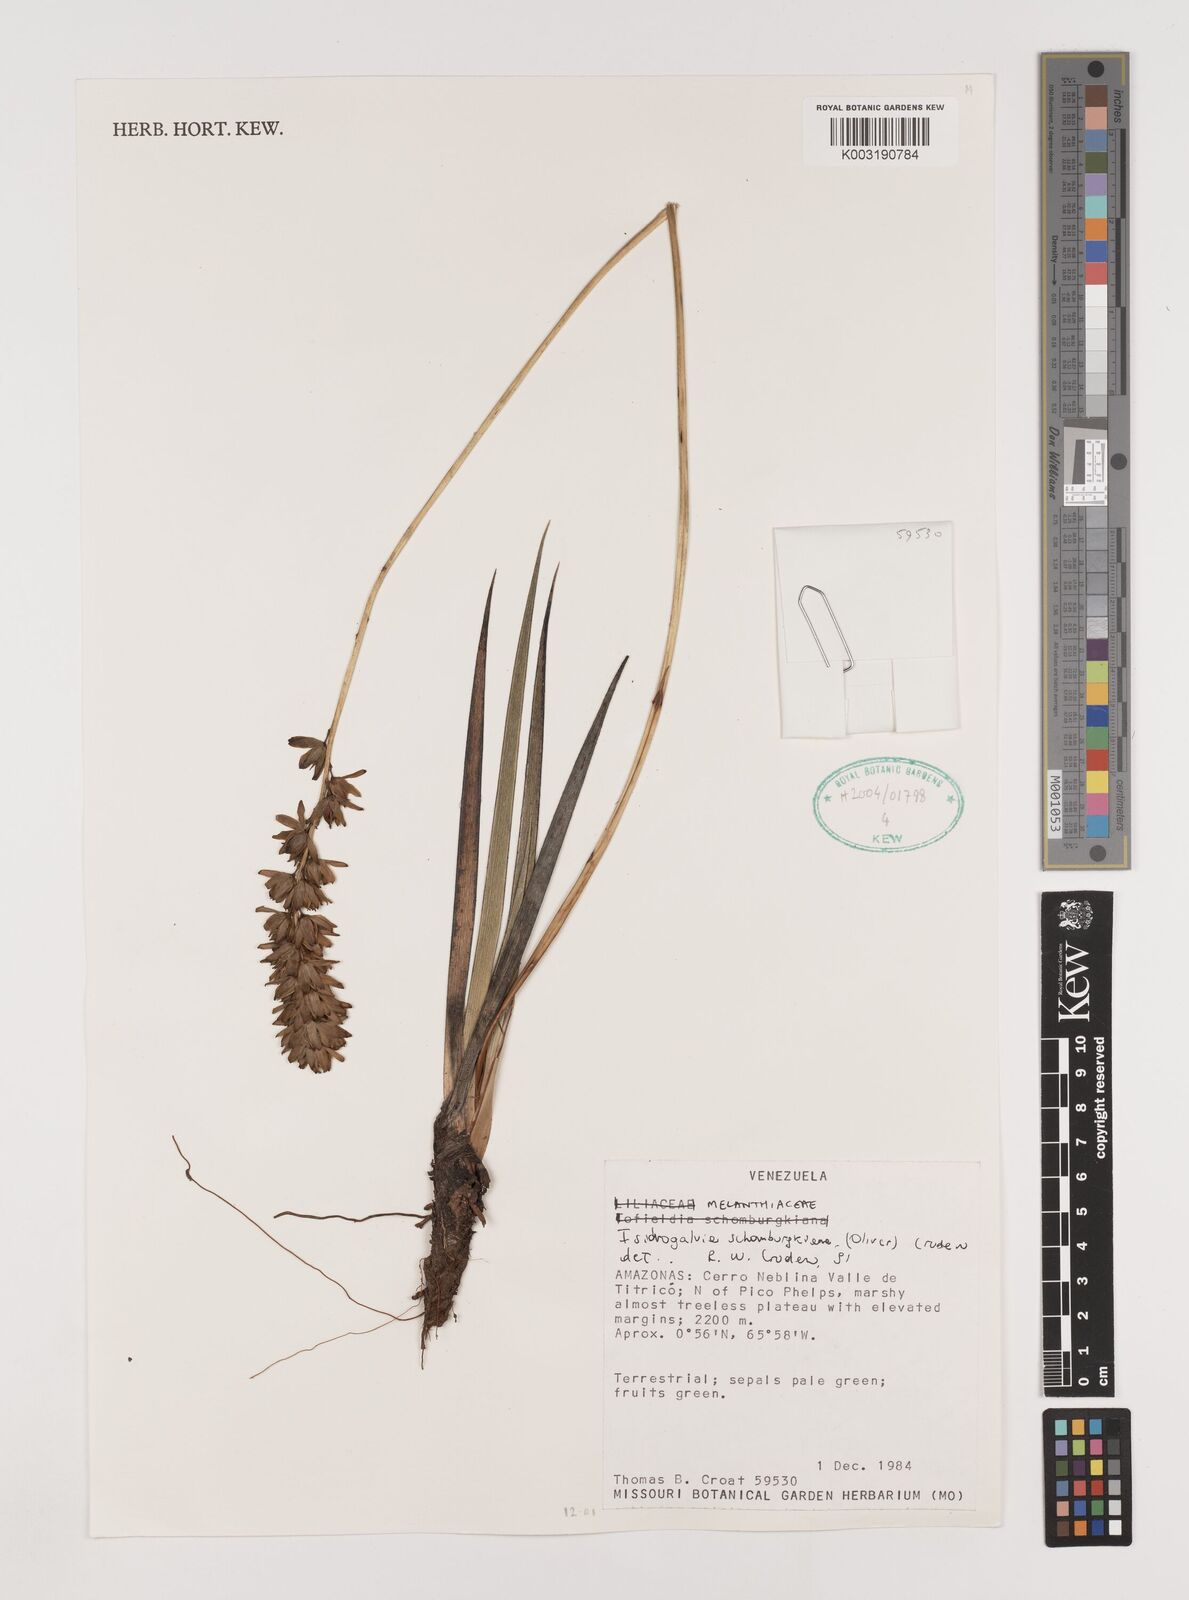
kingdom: Plantae
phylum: Tracheophyta
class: Liliopsida
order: Alismatales
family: Tofieldiaceae
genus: Harperocallis
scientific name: Harperocallis schomburgkiana
